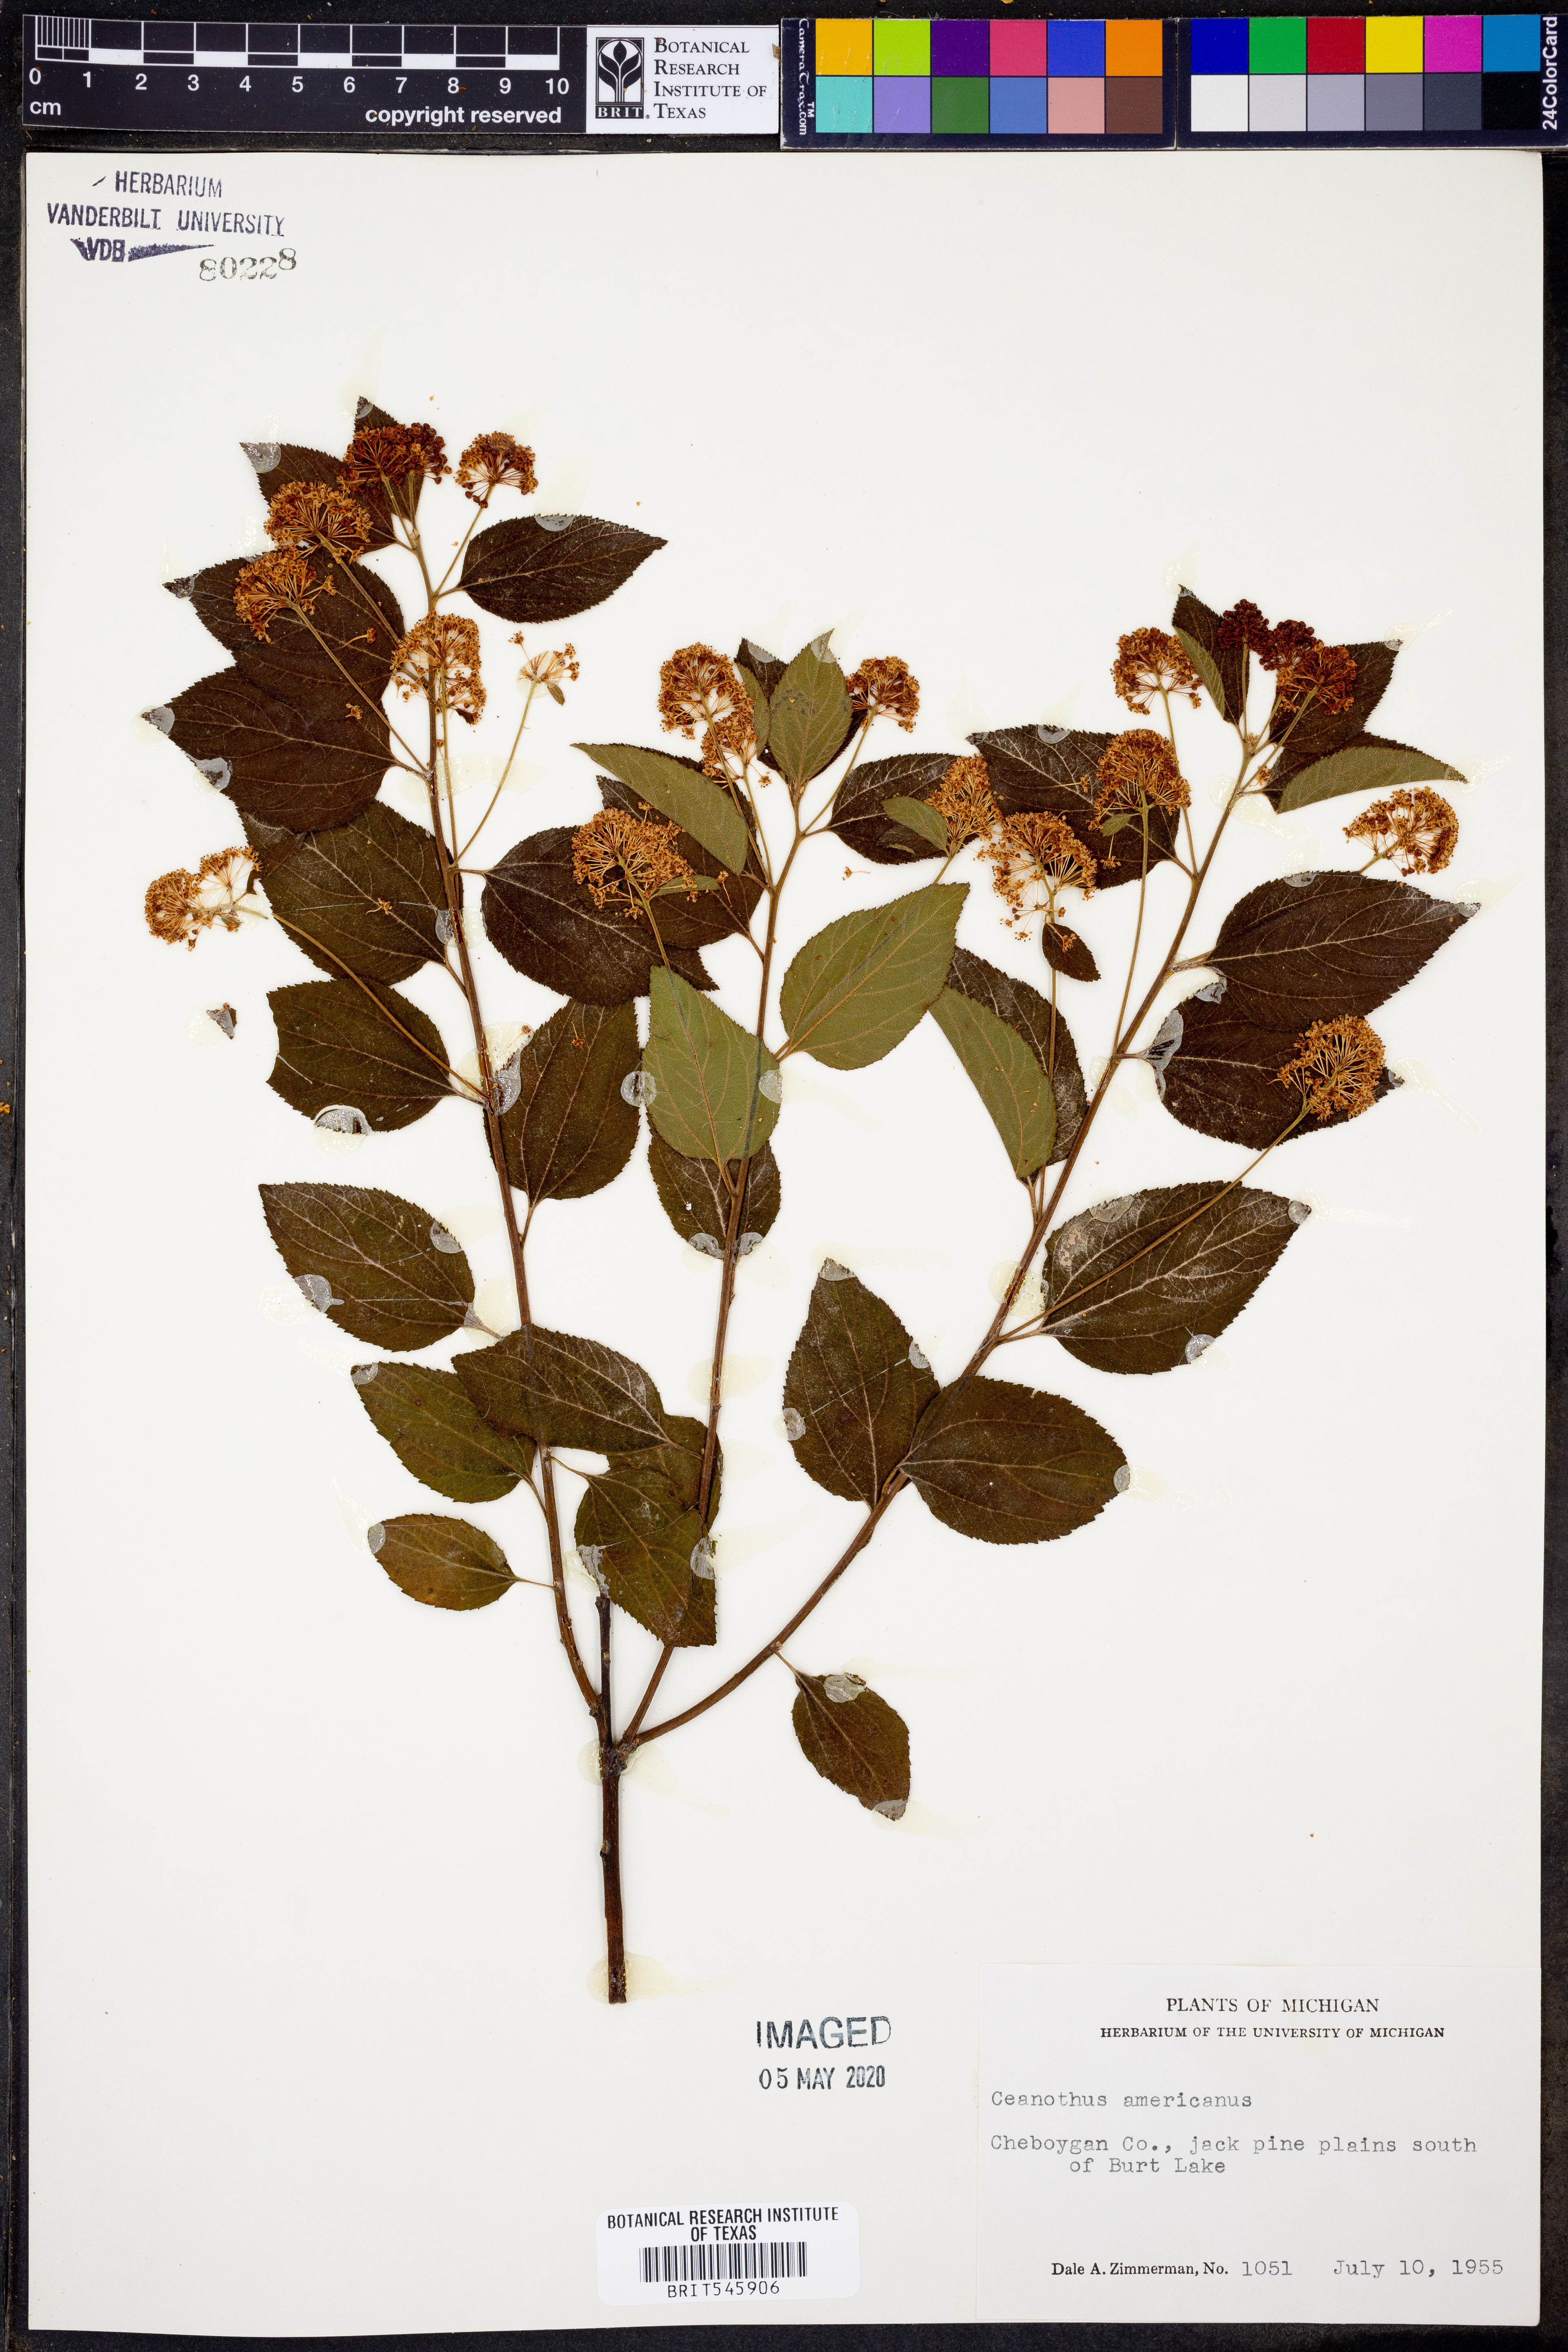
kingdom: Plantae
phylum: Tracheophyta
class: Magnoliopsida
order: Rosales
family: Rhamnaceae
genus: Ceanothus
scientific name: Ceanothus americanus
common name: Redroot
